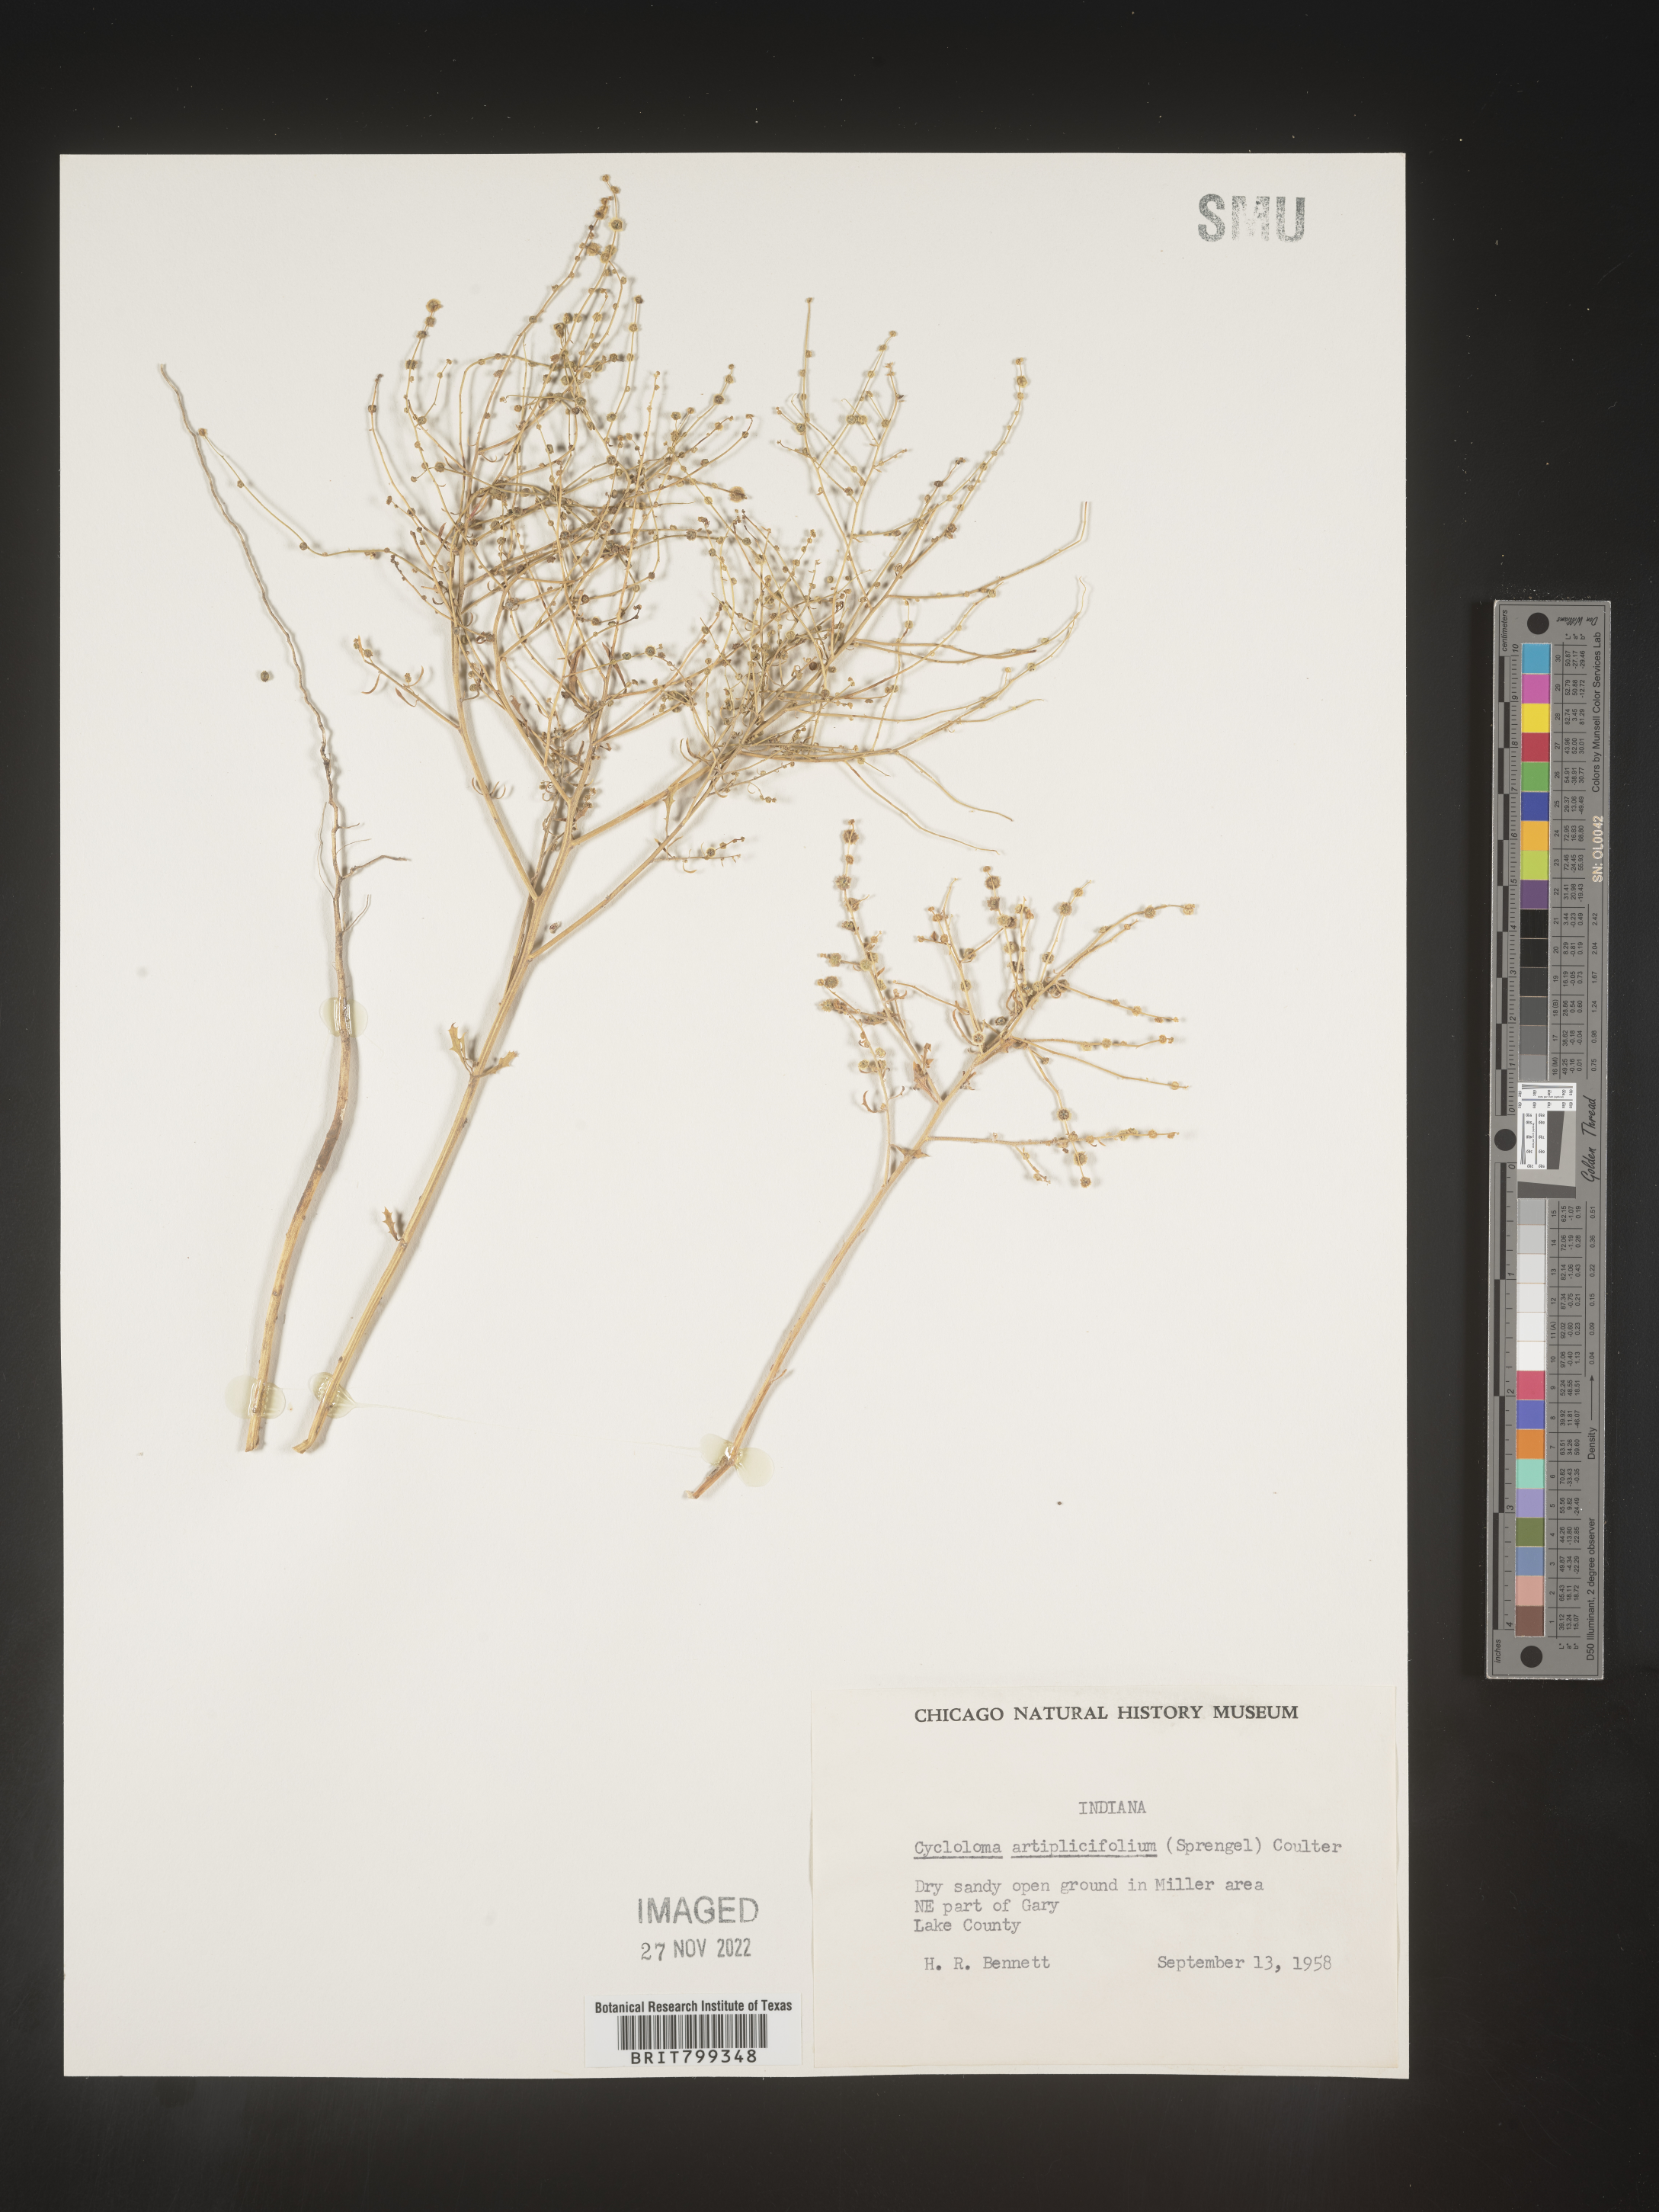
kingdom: Plantae
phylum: Tracheophyta
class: Magnoliopsida
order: Caryophyllales
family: Amaranthaceae
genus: Dysphania
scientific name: Dysphania atriplicifolia
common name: Plains tumbleweed
